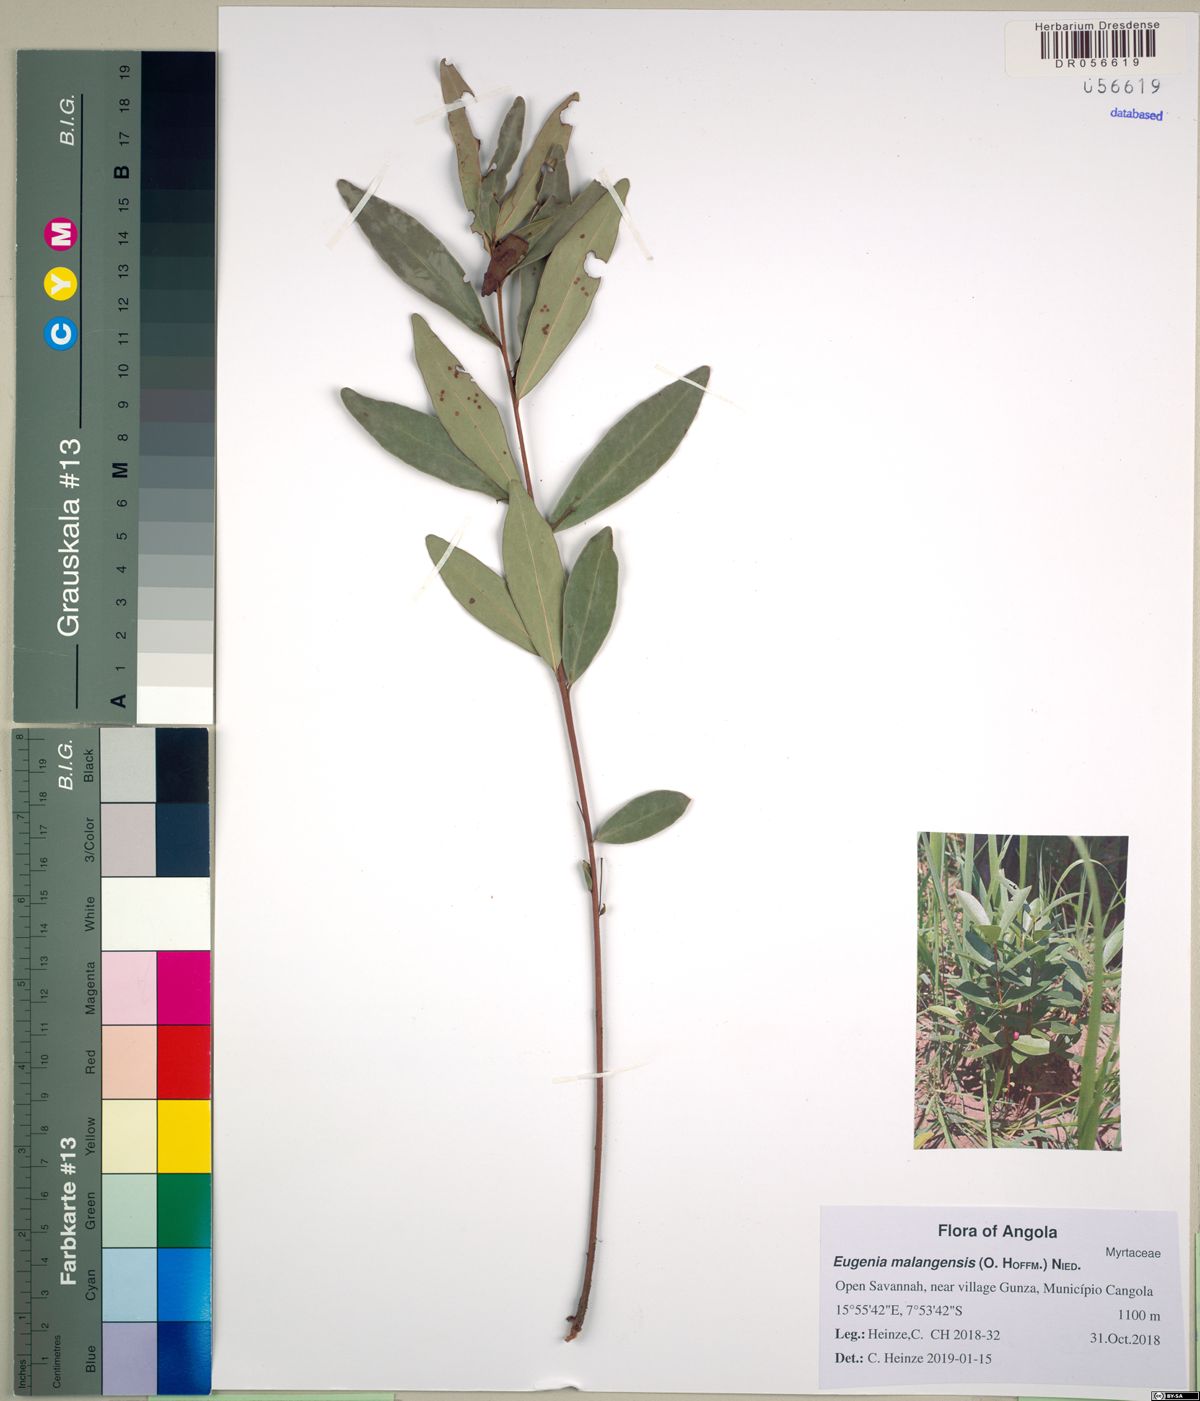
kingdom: Plantae
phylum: Tracheophyta
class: Magnoliopsida
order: Myrtales
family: Myrtaceae
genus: Eugenia
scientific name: Eugenia malangensis
